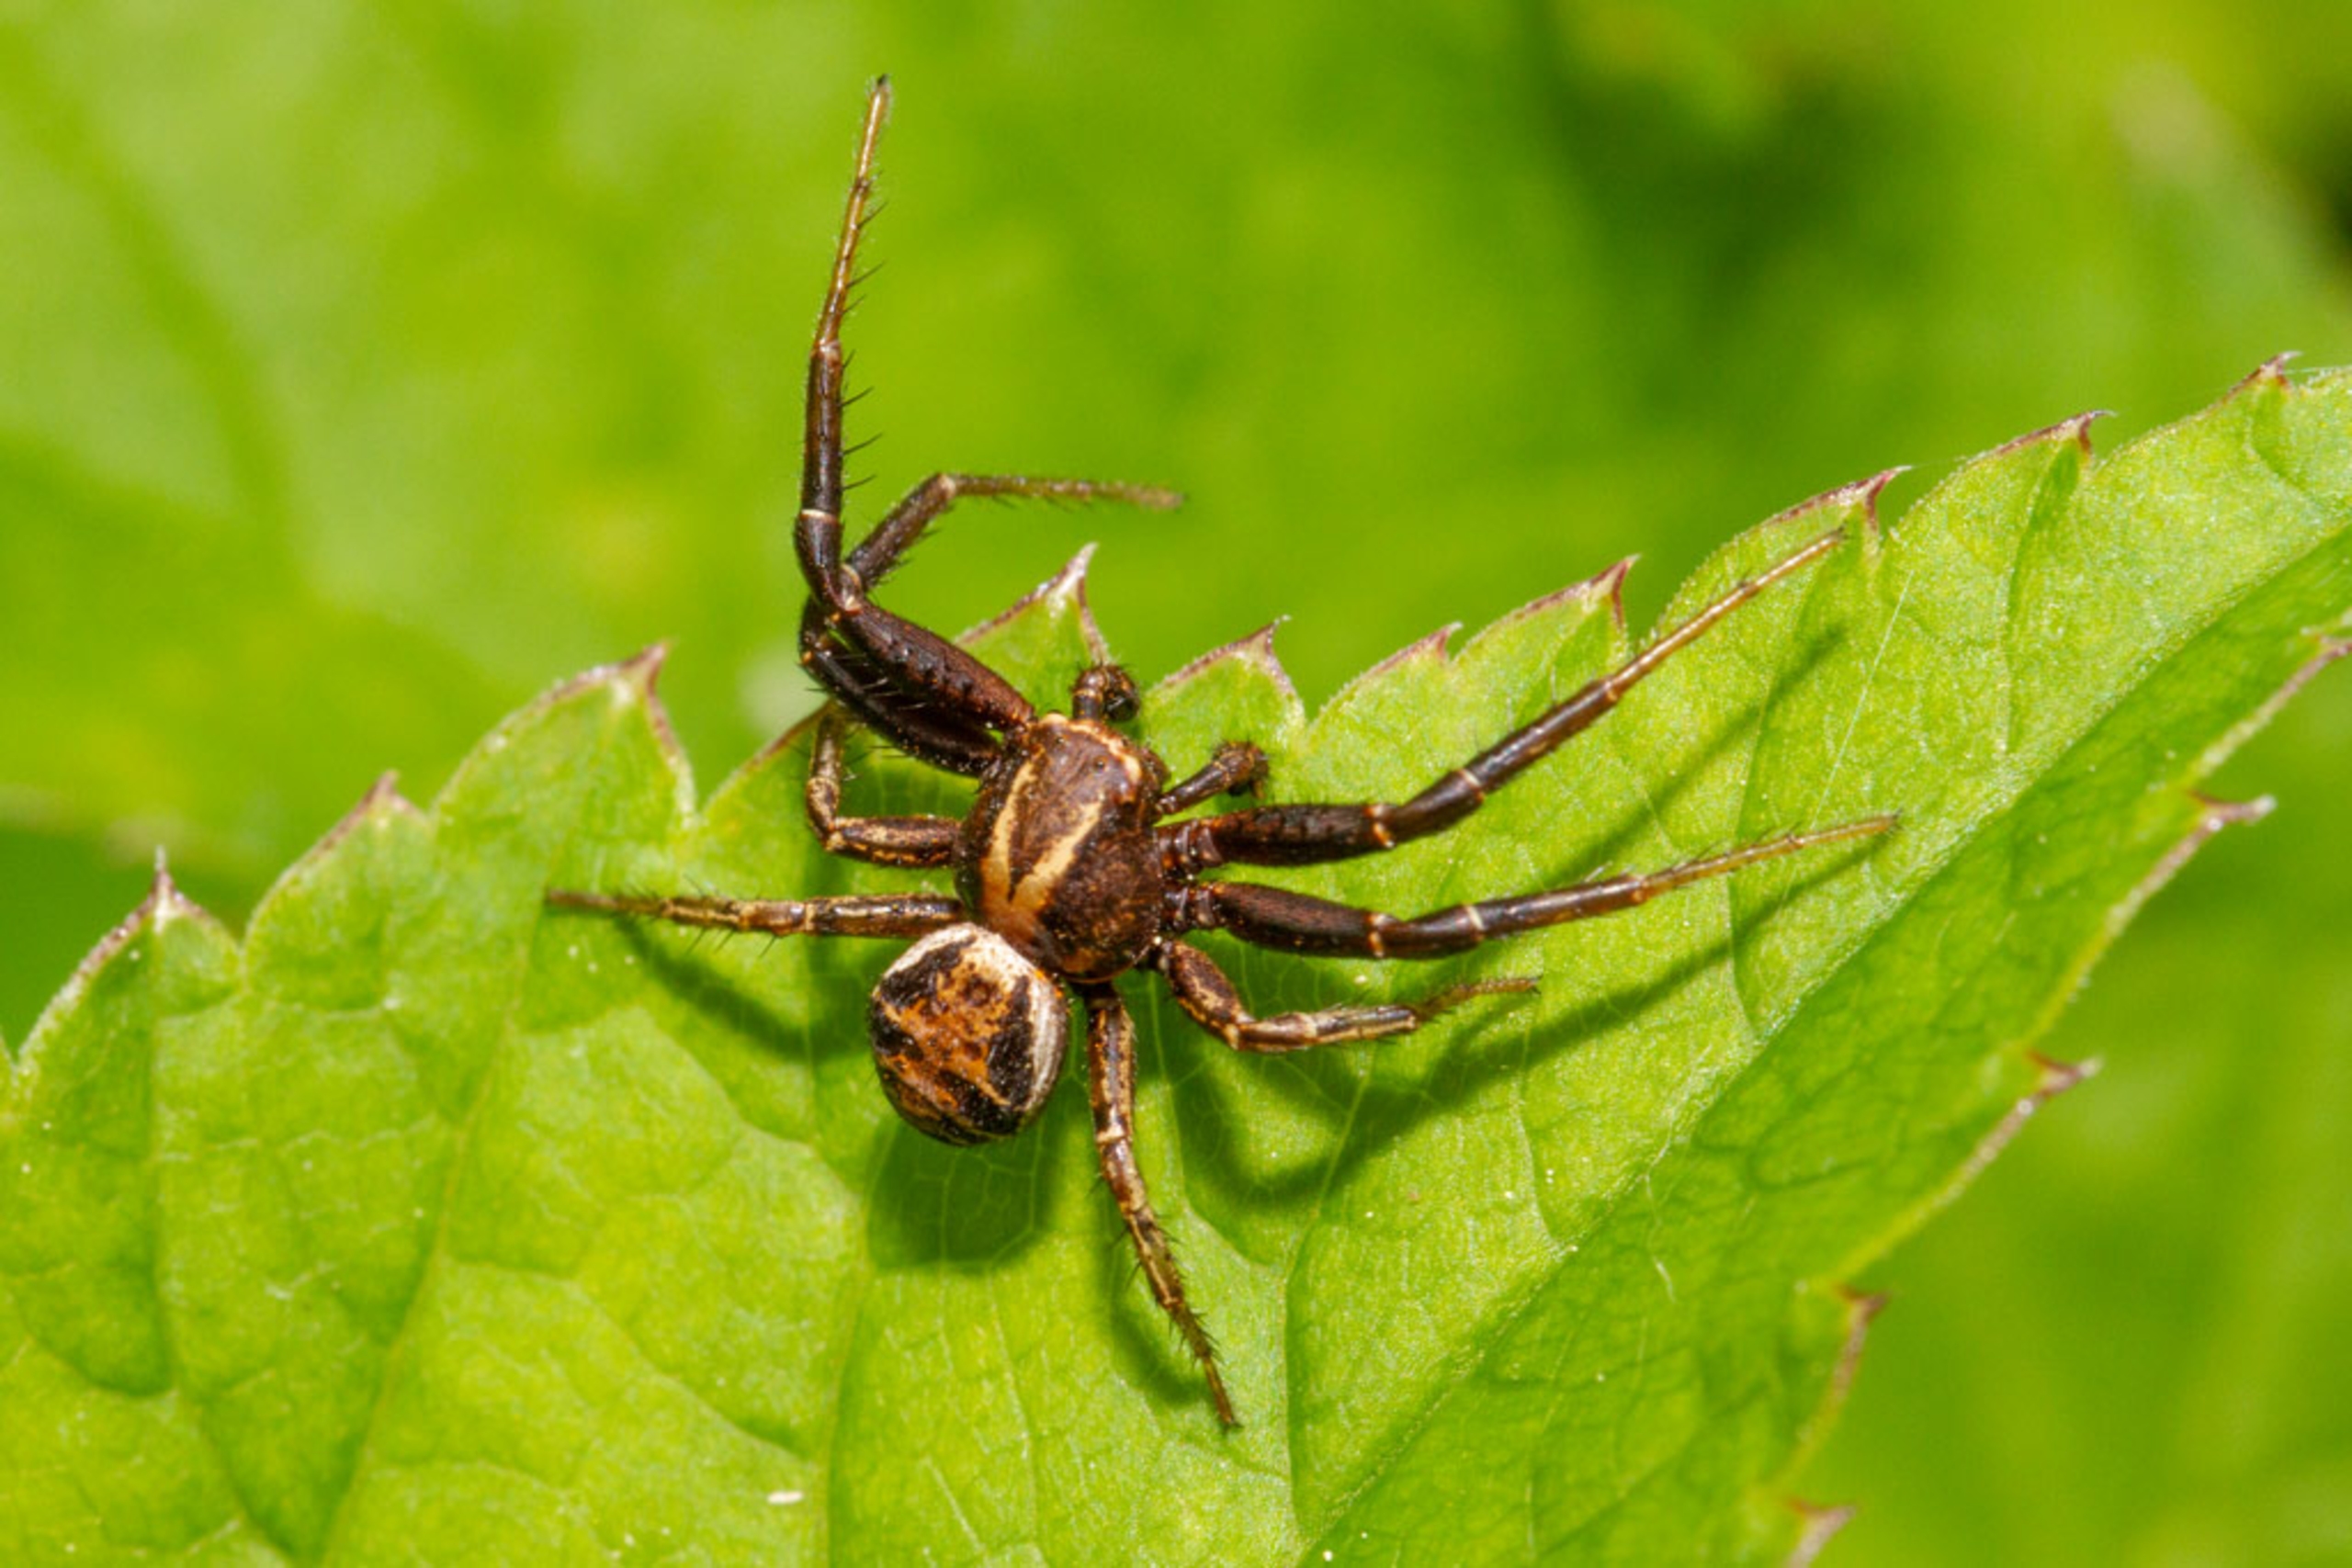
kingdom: Animalia
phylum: Arthropoda
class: Arachnida
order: Araneae
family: Thomisidae
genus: Xysticus
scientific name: Xysticus
